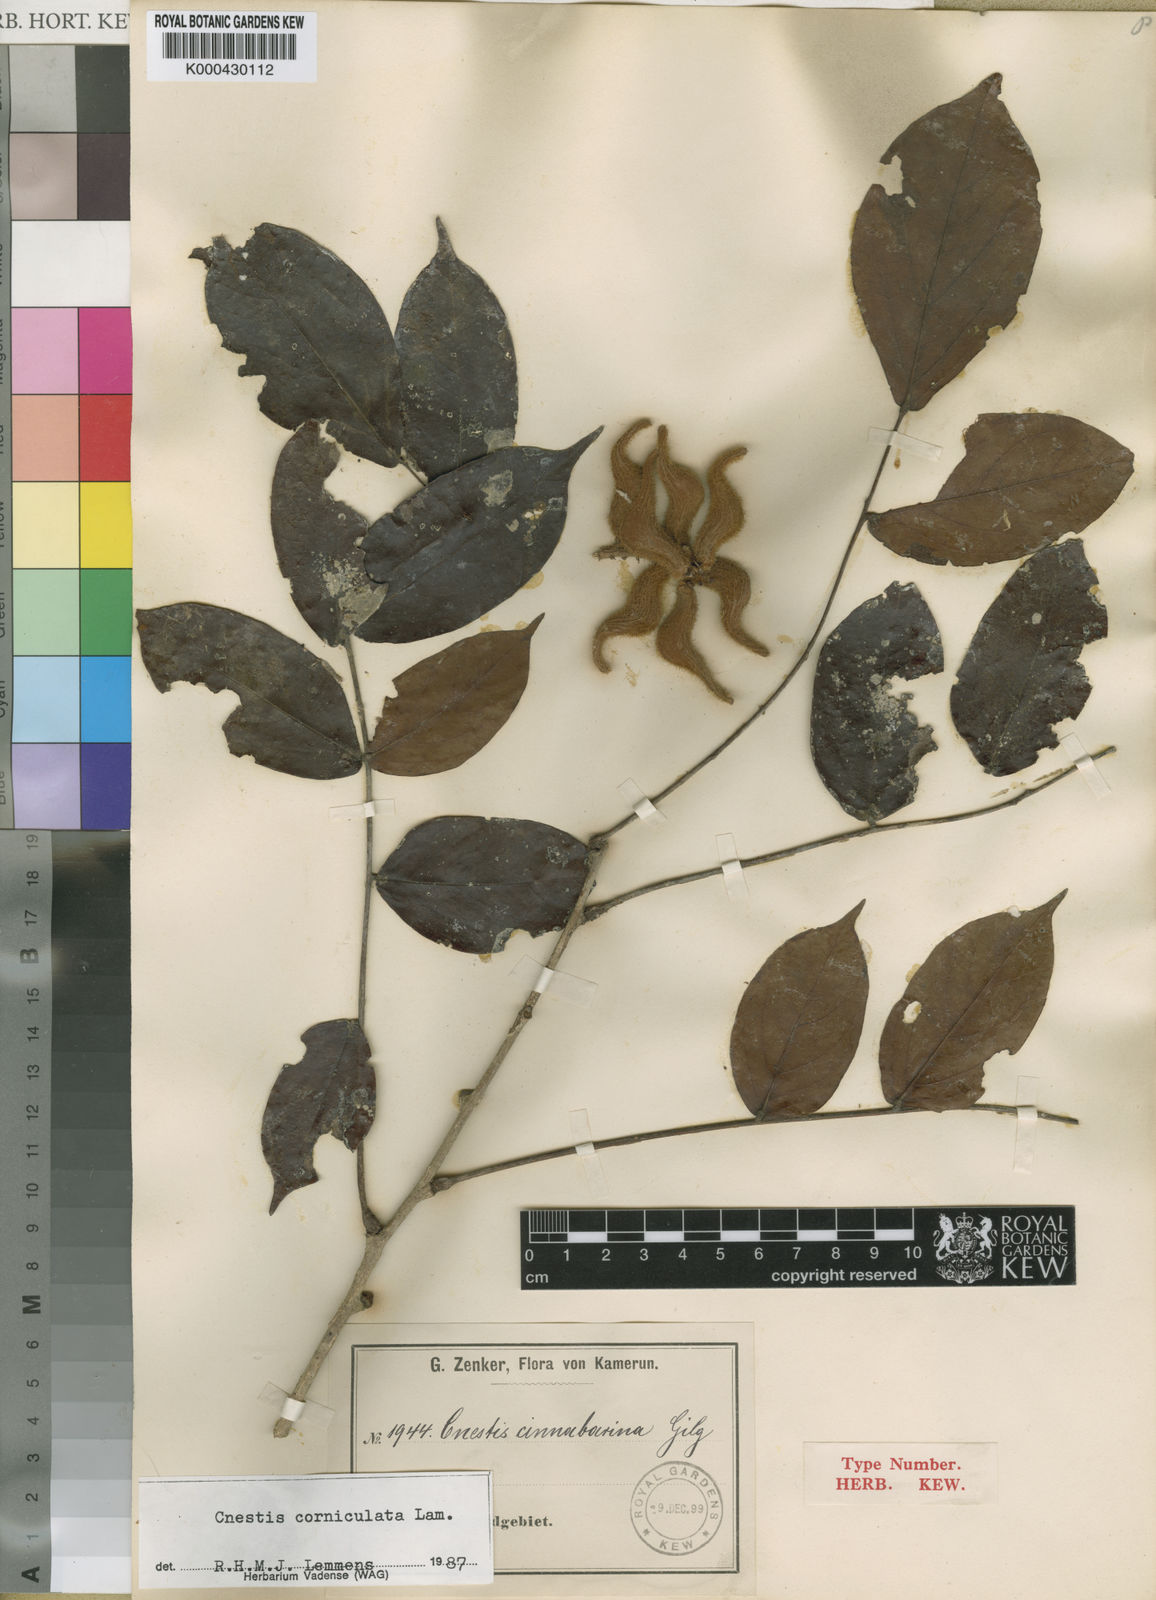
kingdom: Plantae
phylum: Tracheophyta
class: Magnoliopsida
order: Oxalidales
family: Connaraceae
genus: Cnestis
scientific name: Cnestis corniculata
